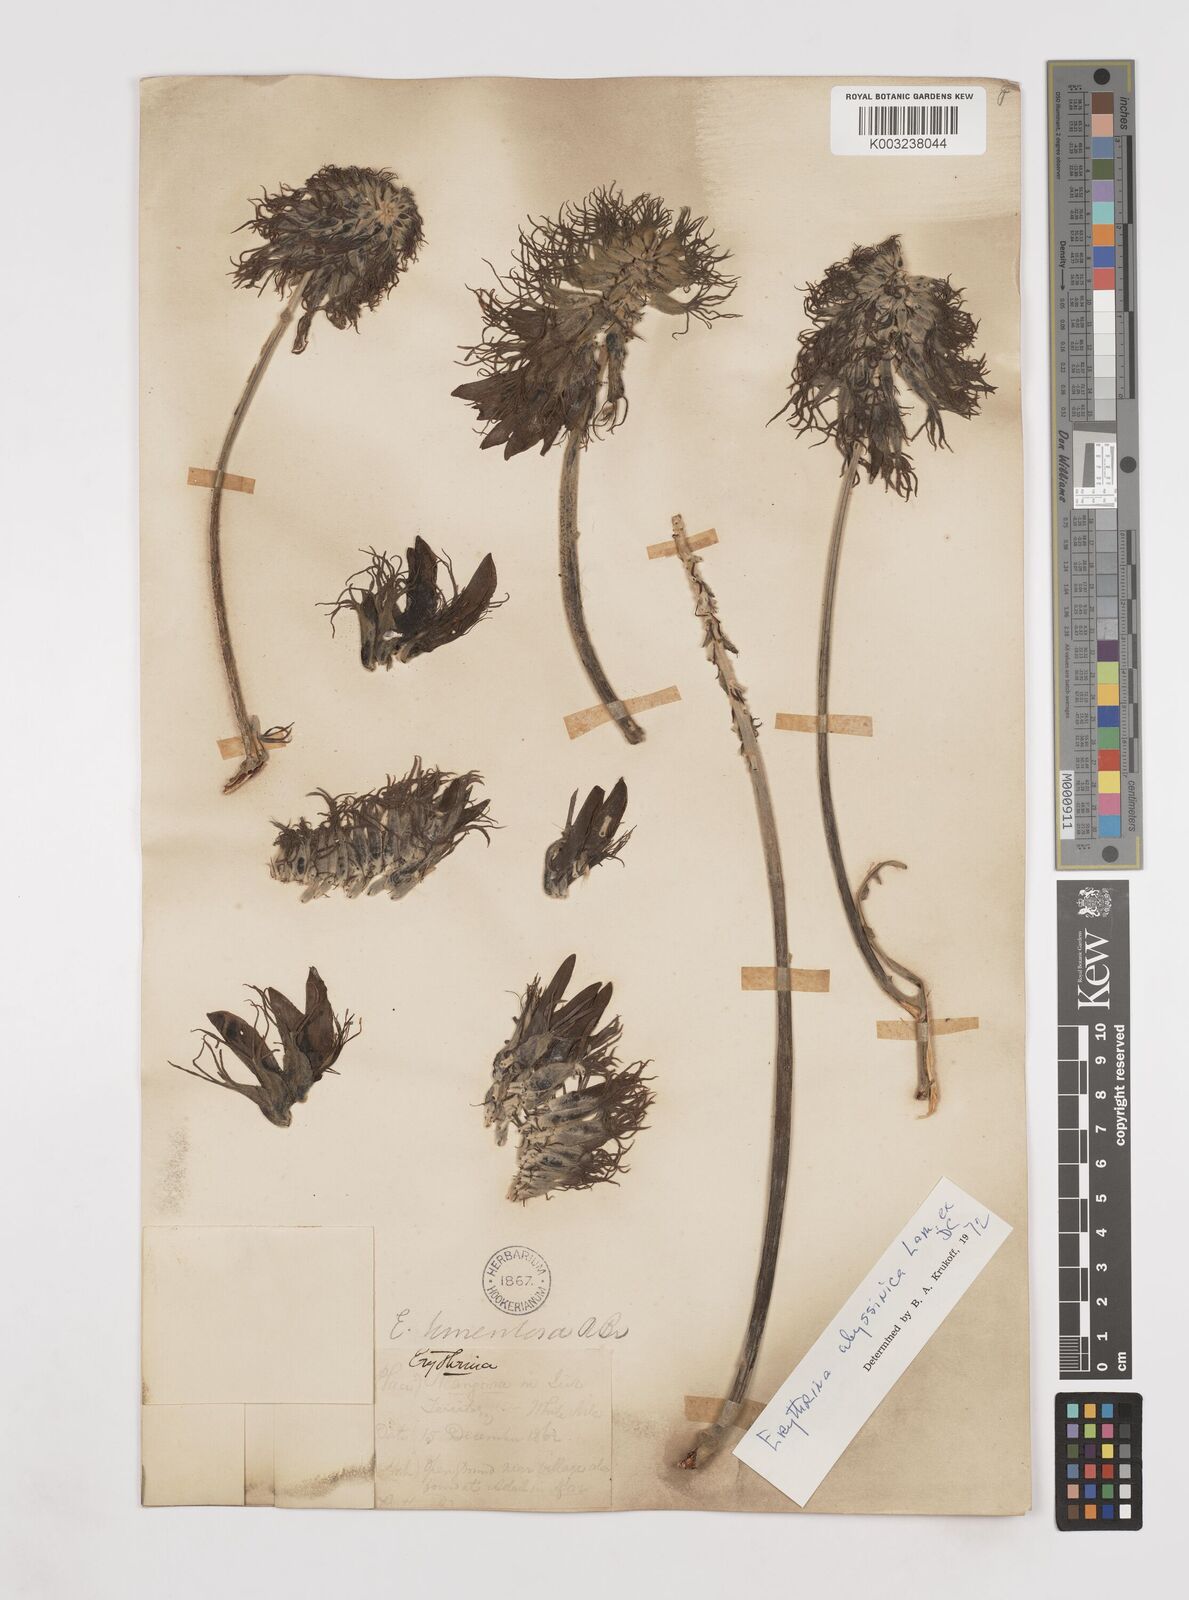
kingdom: Plantae
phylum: Tracheophyta
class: Magnoliopsida
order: Fabales
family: Fabaceae
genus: Erythrina
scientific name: Erythrina abyssinica
